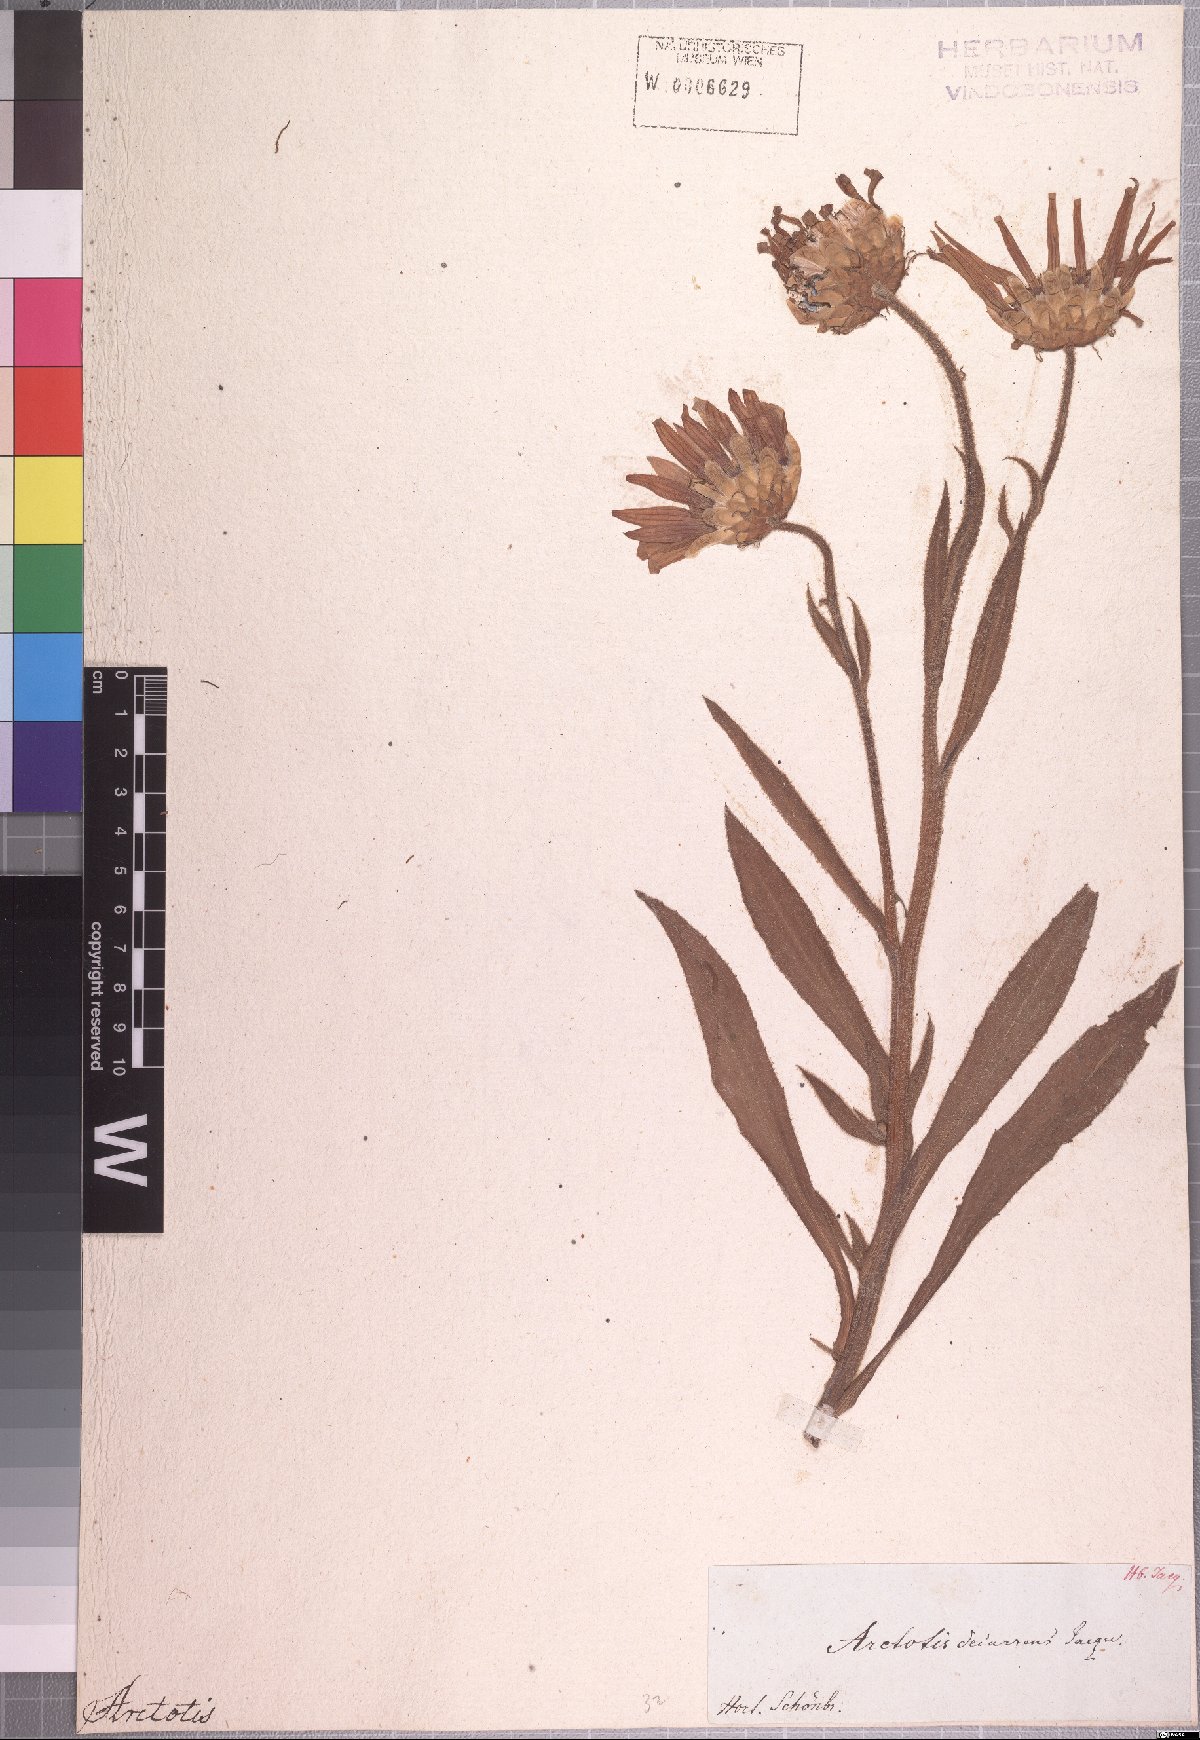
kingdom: Plantae
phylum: Tracheophyta
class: Magnoliopsida
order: Asterales
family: Asteraceae
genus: Arctotis
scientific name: Arctotis decurrens
